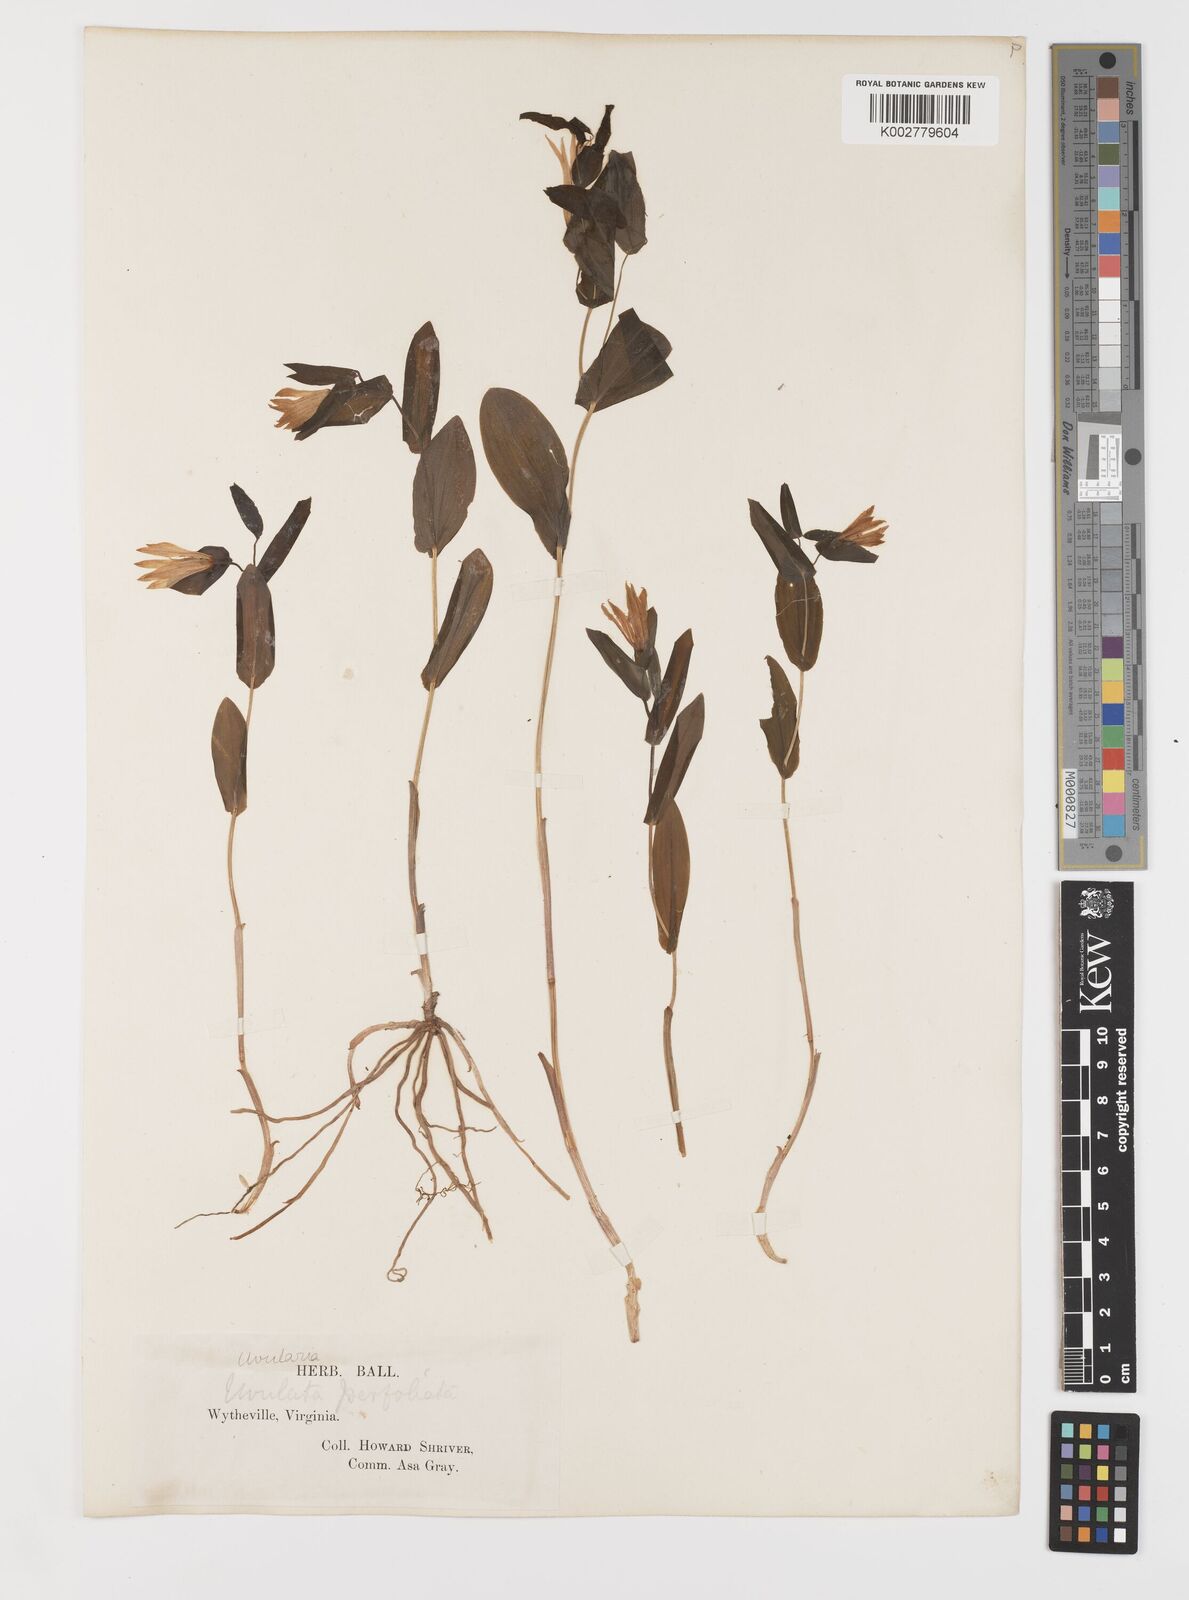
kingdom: Plantae
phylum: Tracheophyta
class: Liliopsida
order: Liliales
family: Colchicaceae
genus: Uvularia
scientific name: Uvularia perfoliata
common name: Perfoliate bellwort
